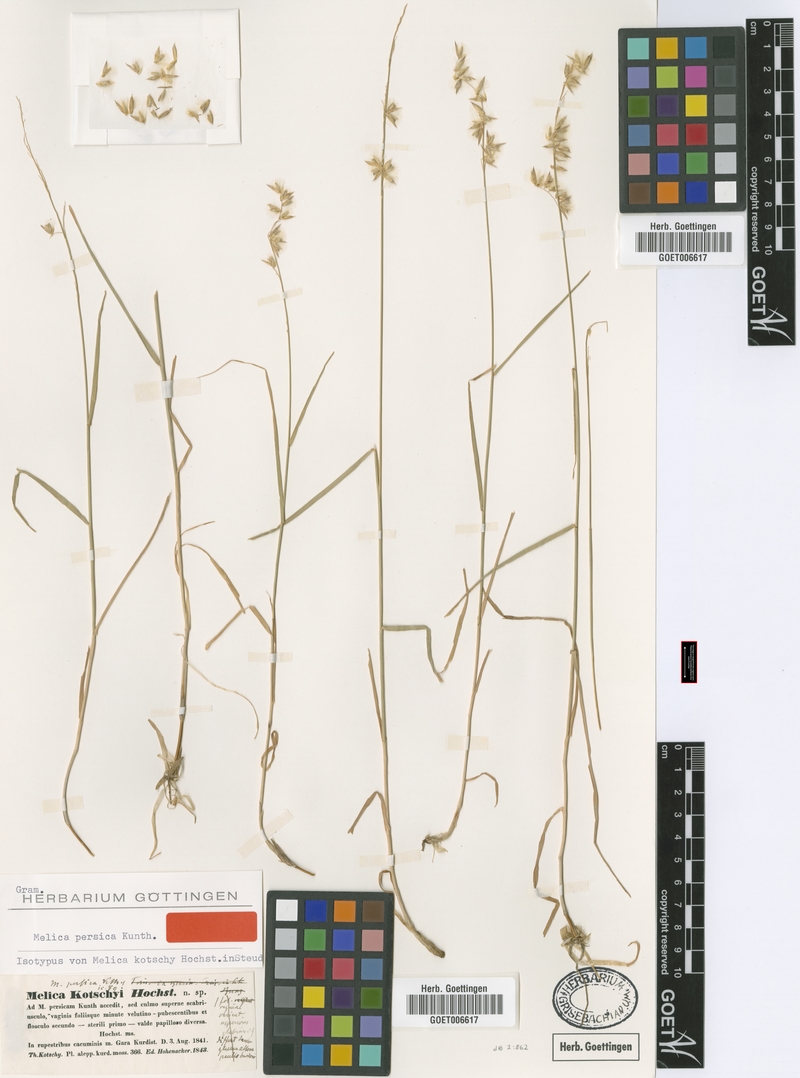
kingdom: Plantae
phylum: Tracheophyta
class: Liliopsida
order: Poales
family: Poaceae
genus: Melica
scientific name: Melica persica
